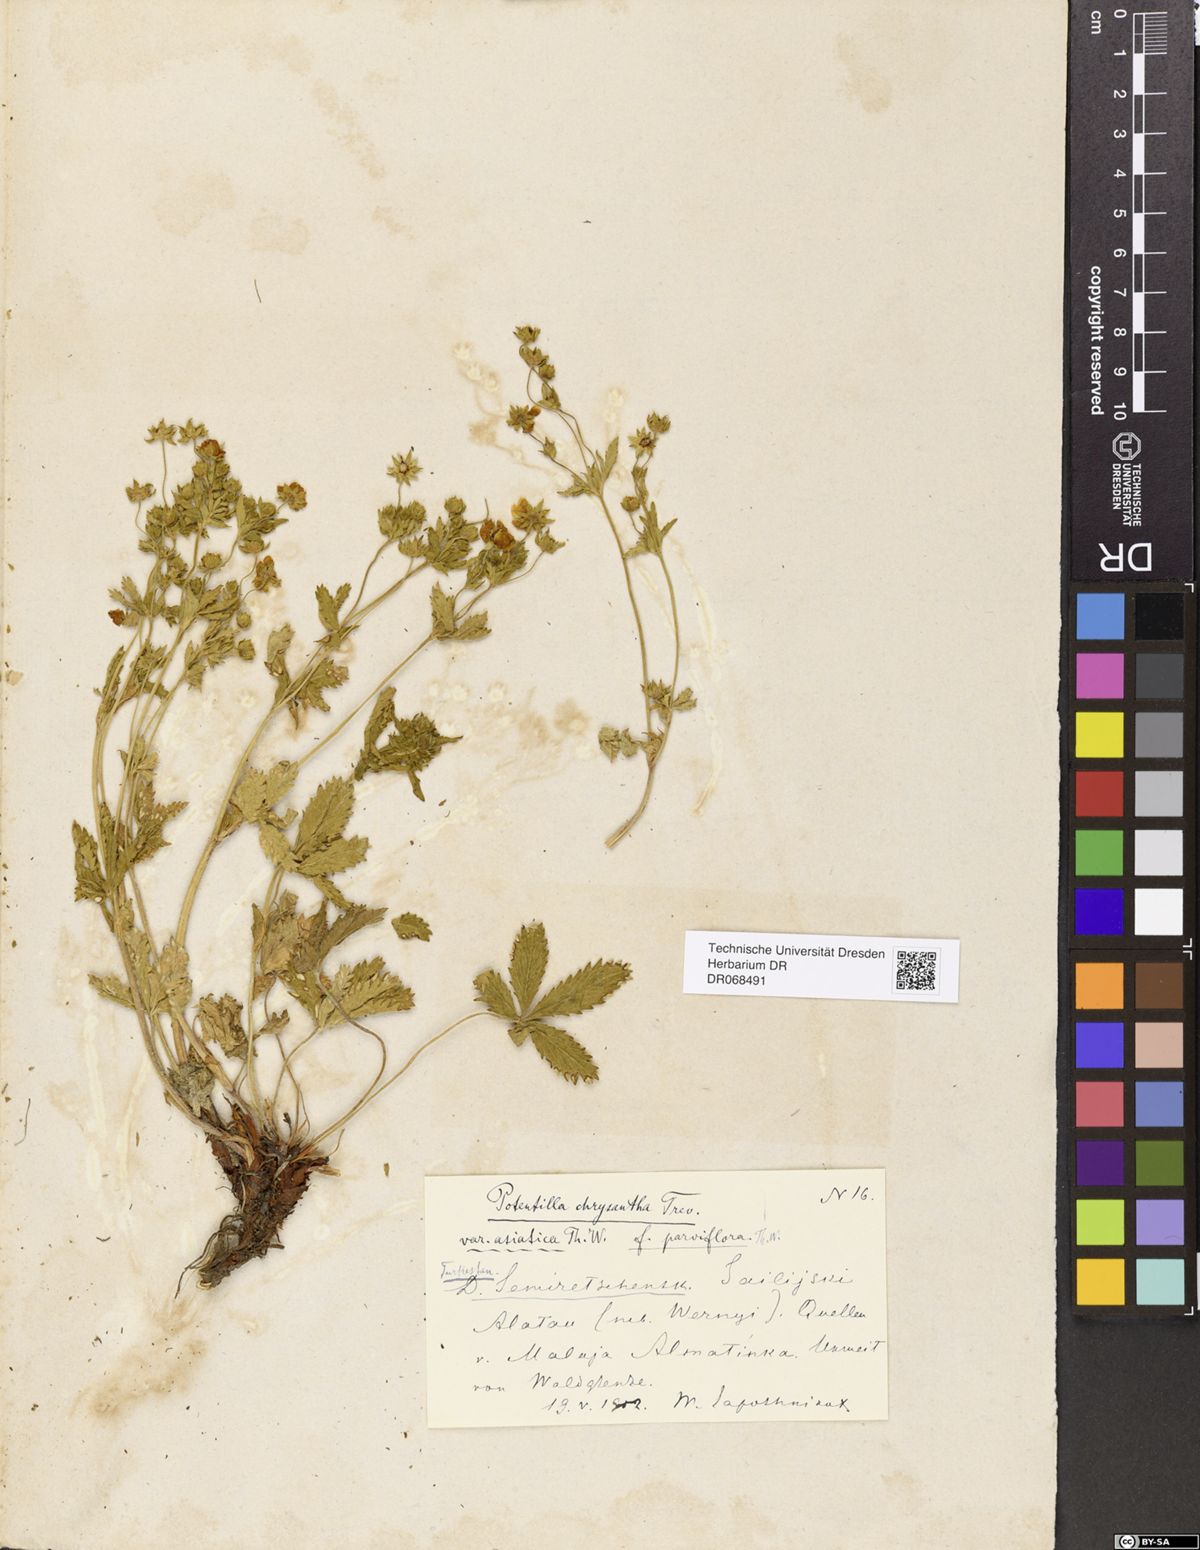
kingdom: Plantae
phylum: Tracheophyta
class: Magnoliopsida
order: Rosales
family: Rosaceae
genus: Potentilla
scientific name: Potentilla asiatica
